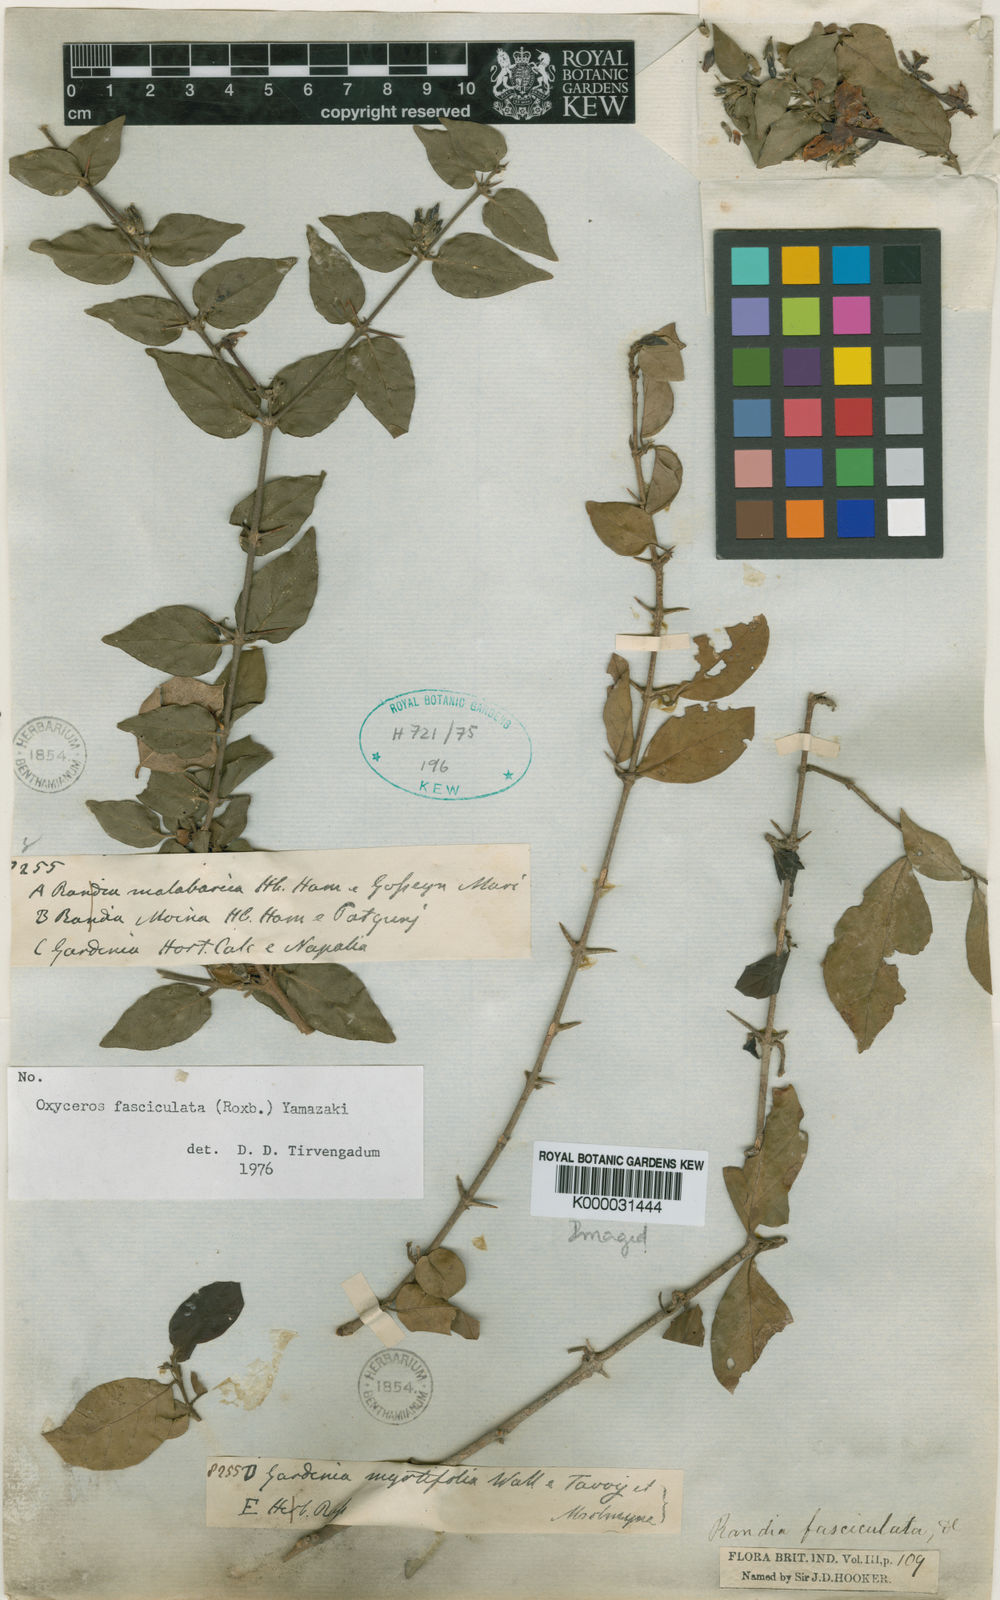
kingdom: Plantae
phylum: Tracheophyta
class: Magnoliopsida
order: Gentianales
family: Rubiaceae
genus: Benkara
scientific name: Benkara fasciculata
